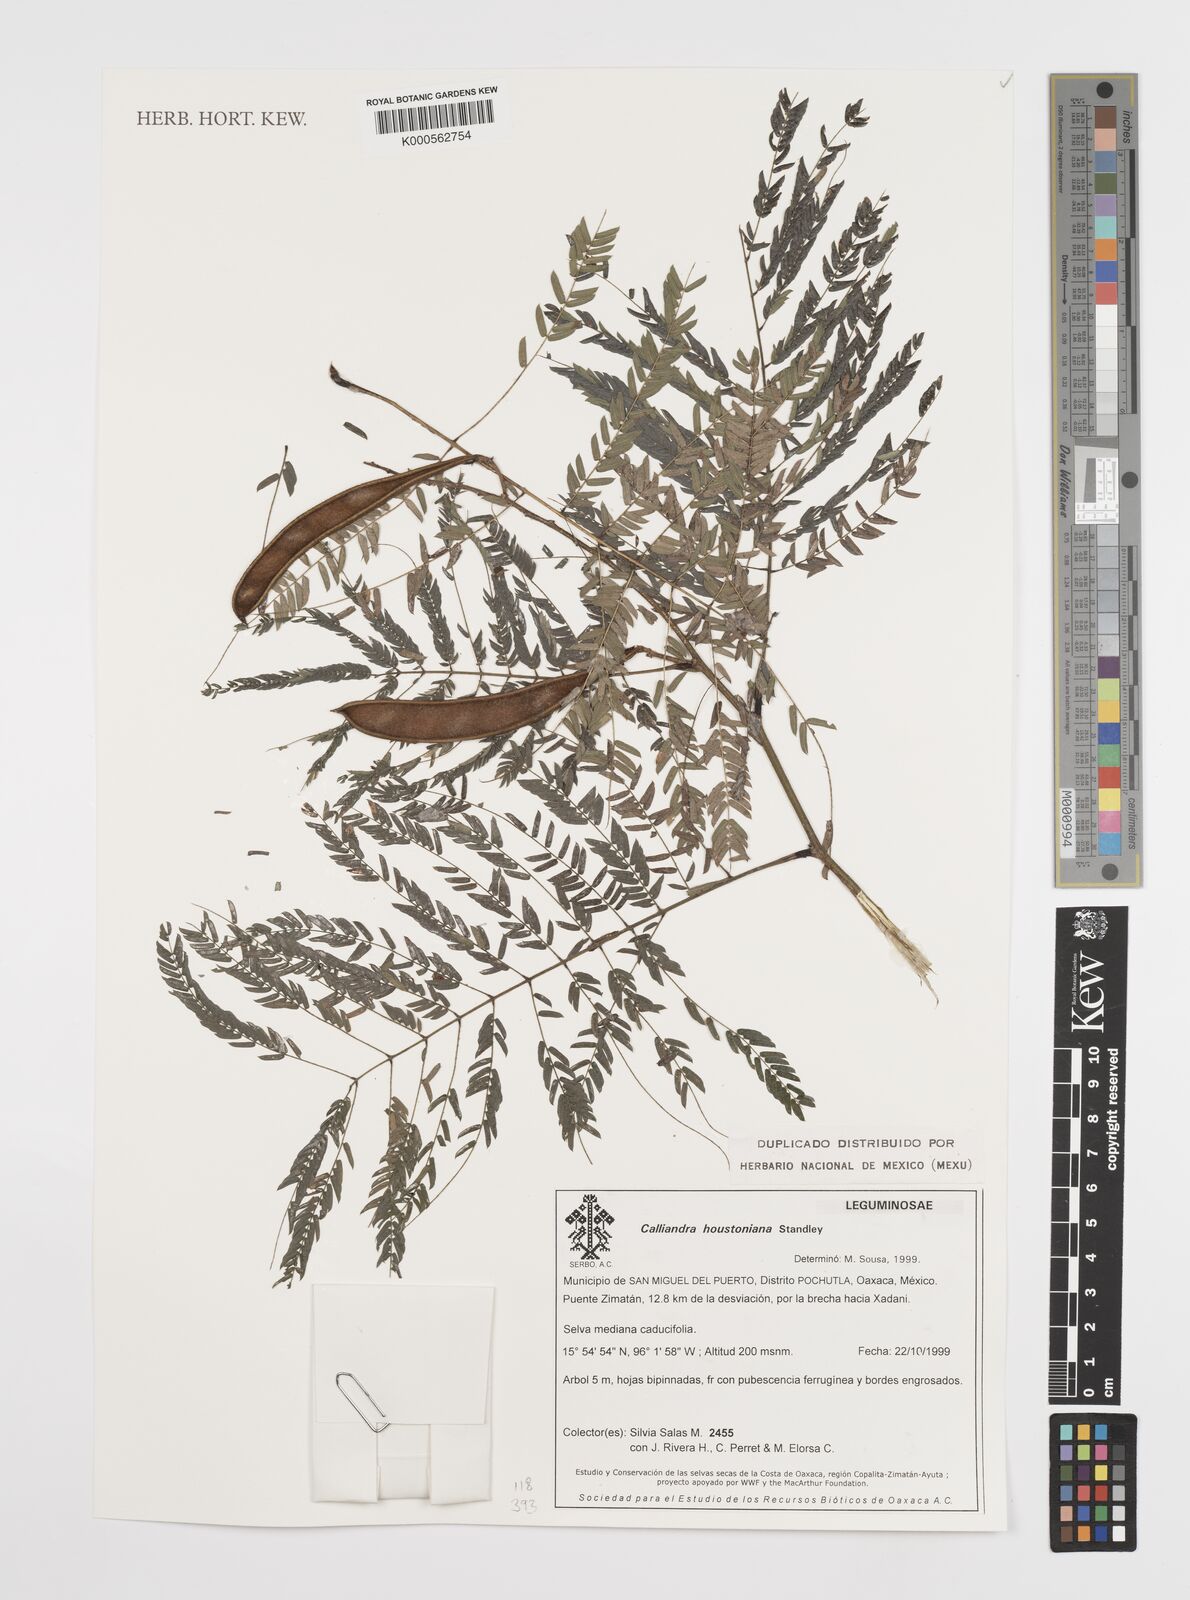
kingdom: Plantae
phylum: Tracheophyta
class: Magnoliopsida
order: Fabales
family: Fabaceae
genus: Calliandra
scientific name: Calliandra houstoniana
